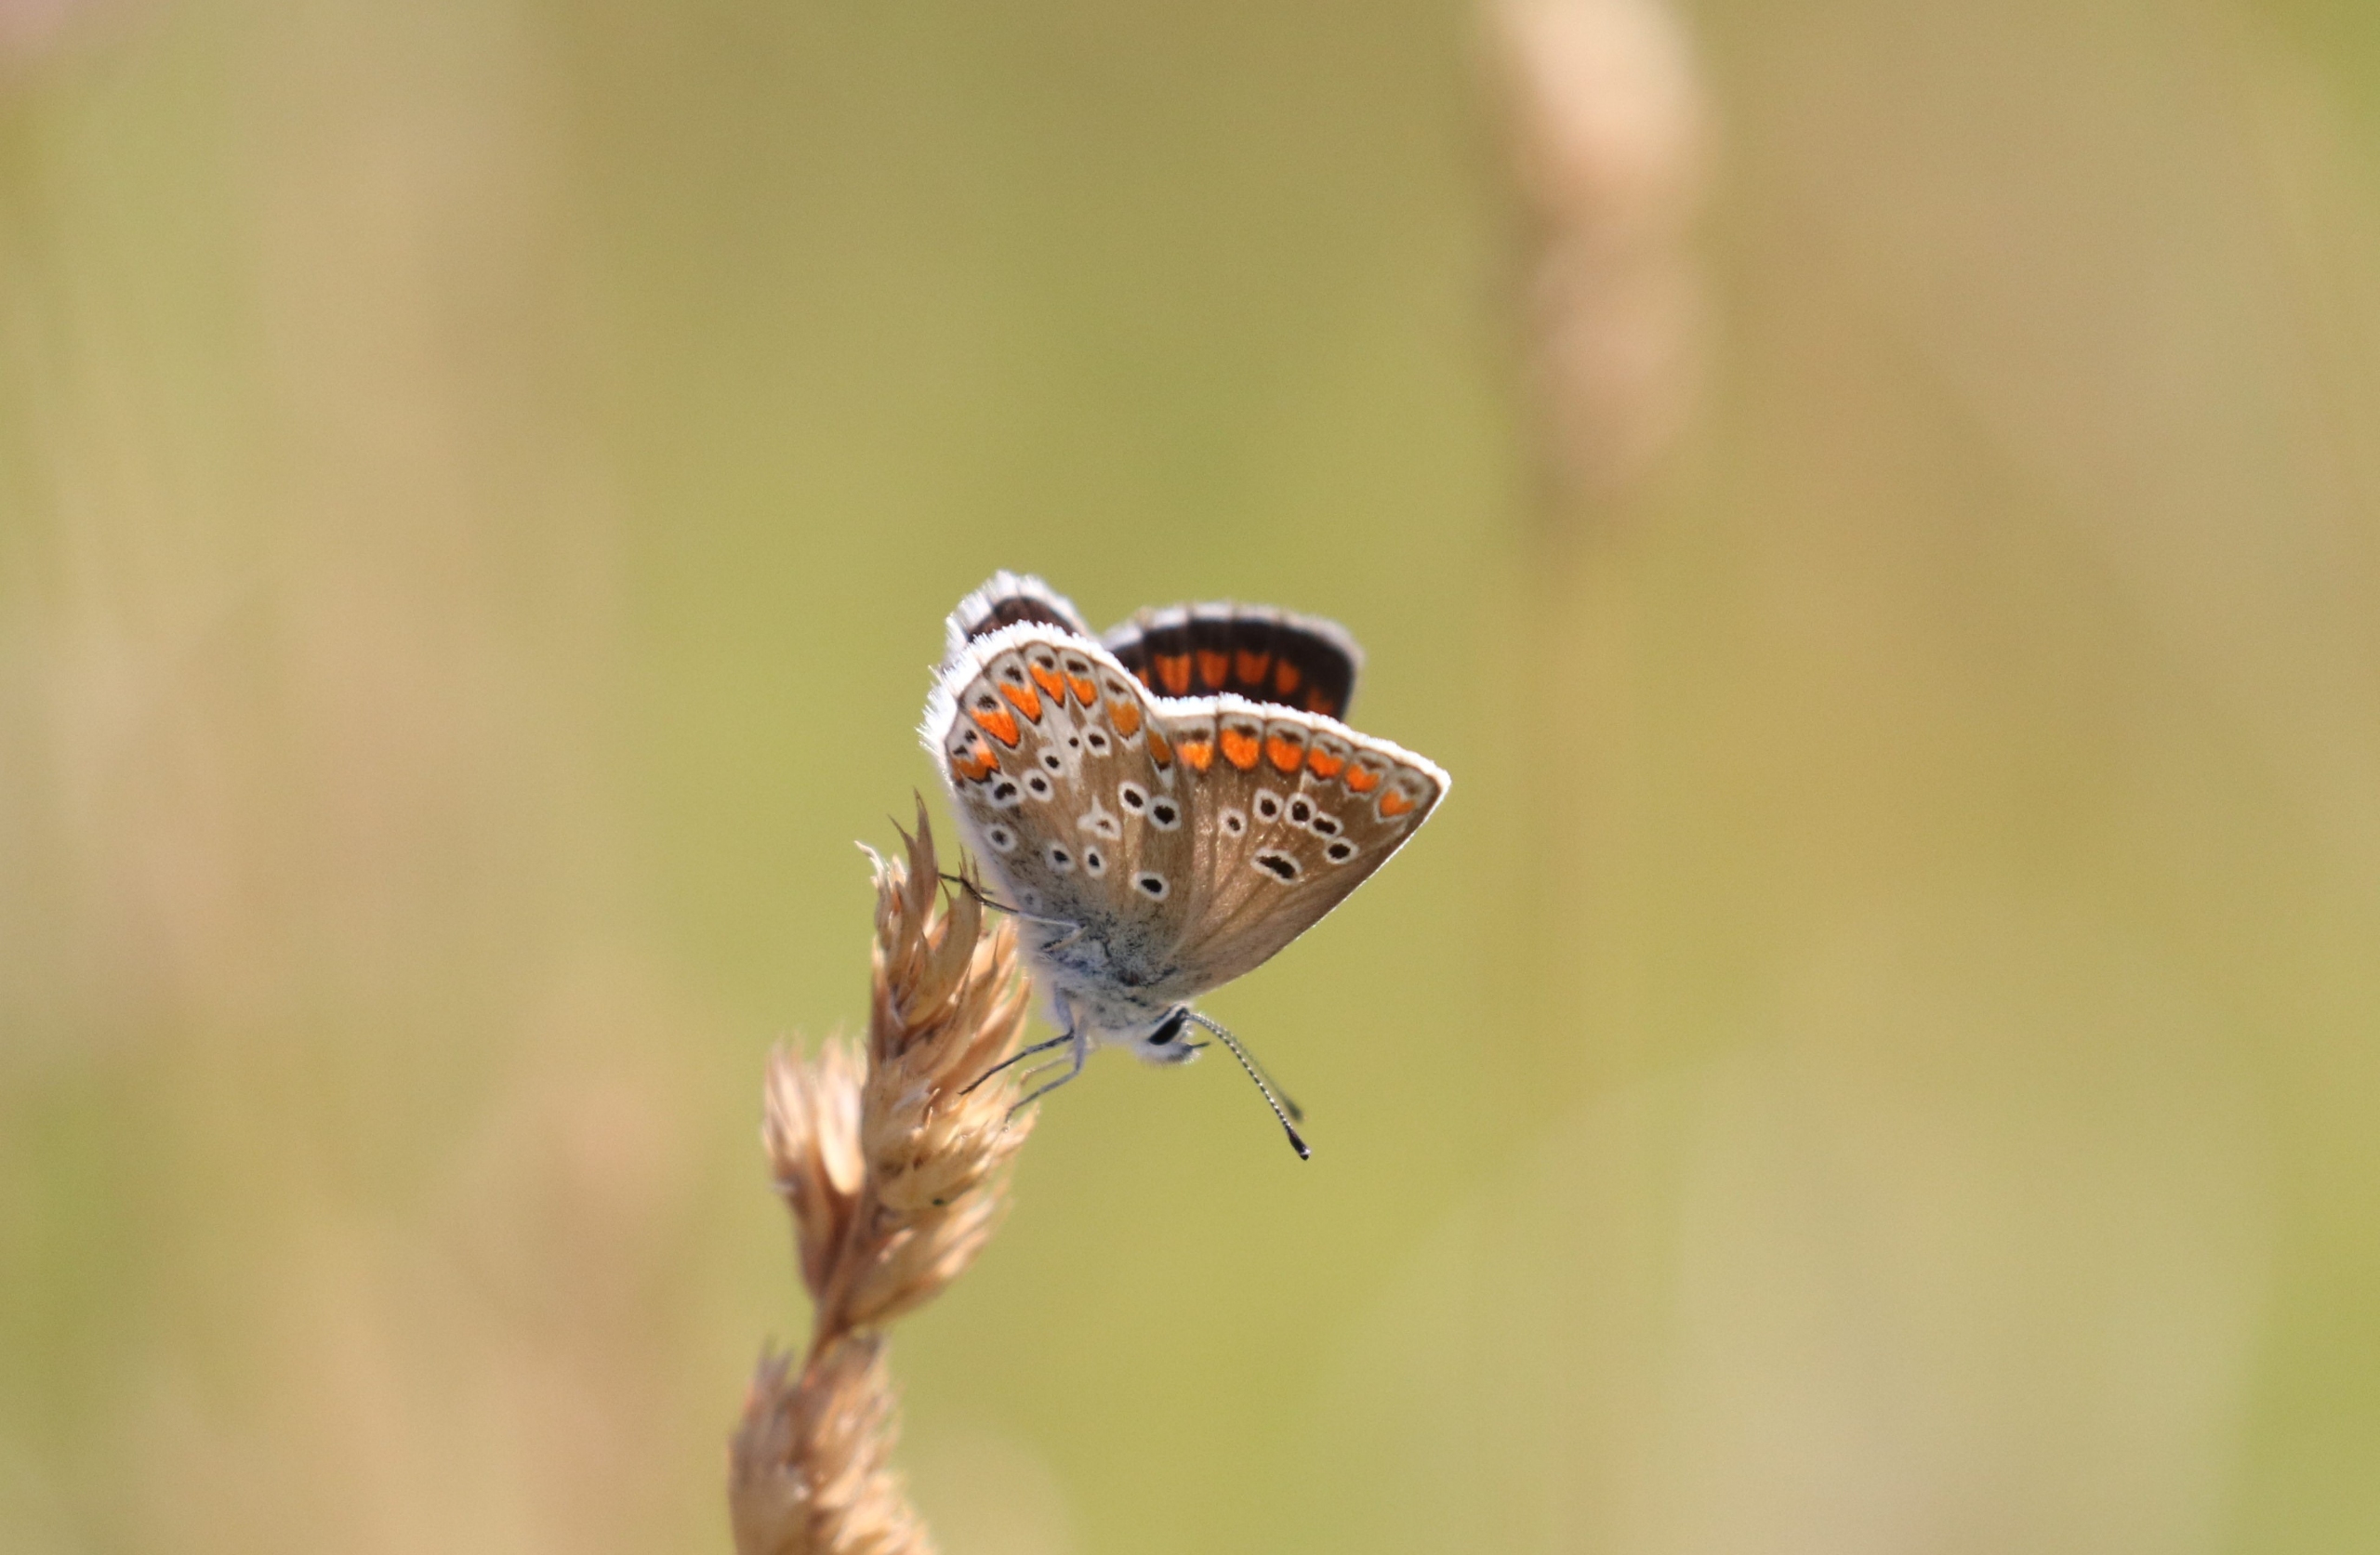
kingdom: Animalia
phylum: Arthropoda
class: Insecta
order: Lepidoptera
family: Lycaenidae
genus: Aricia
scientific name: Aricia agestis
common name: Rødplettet blåfugl
